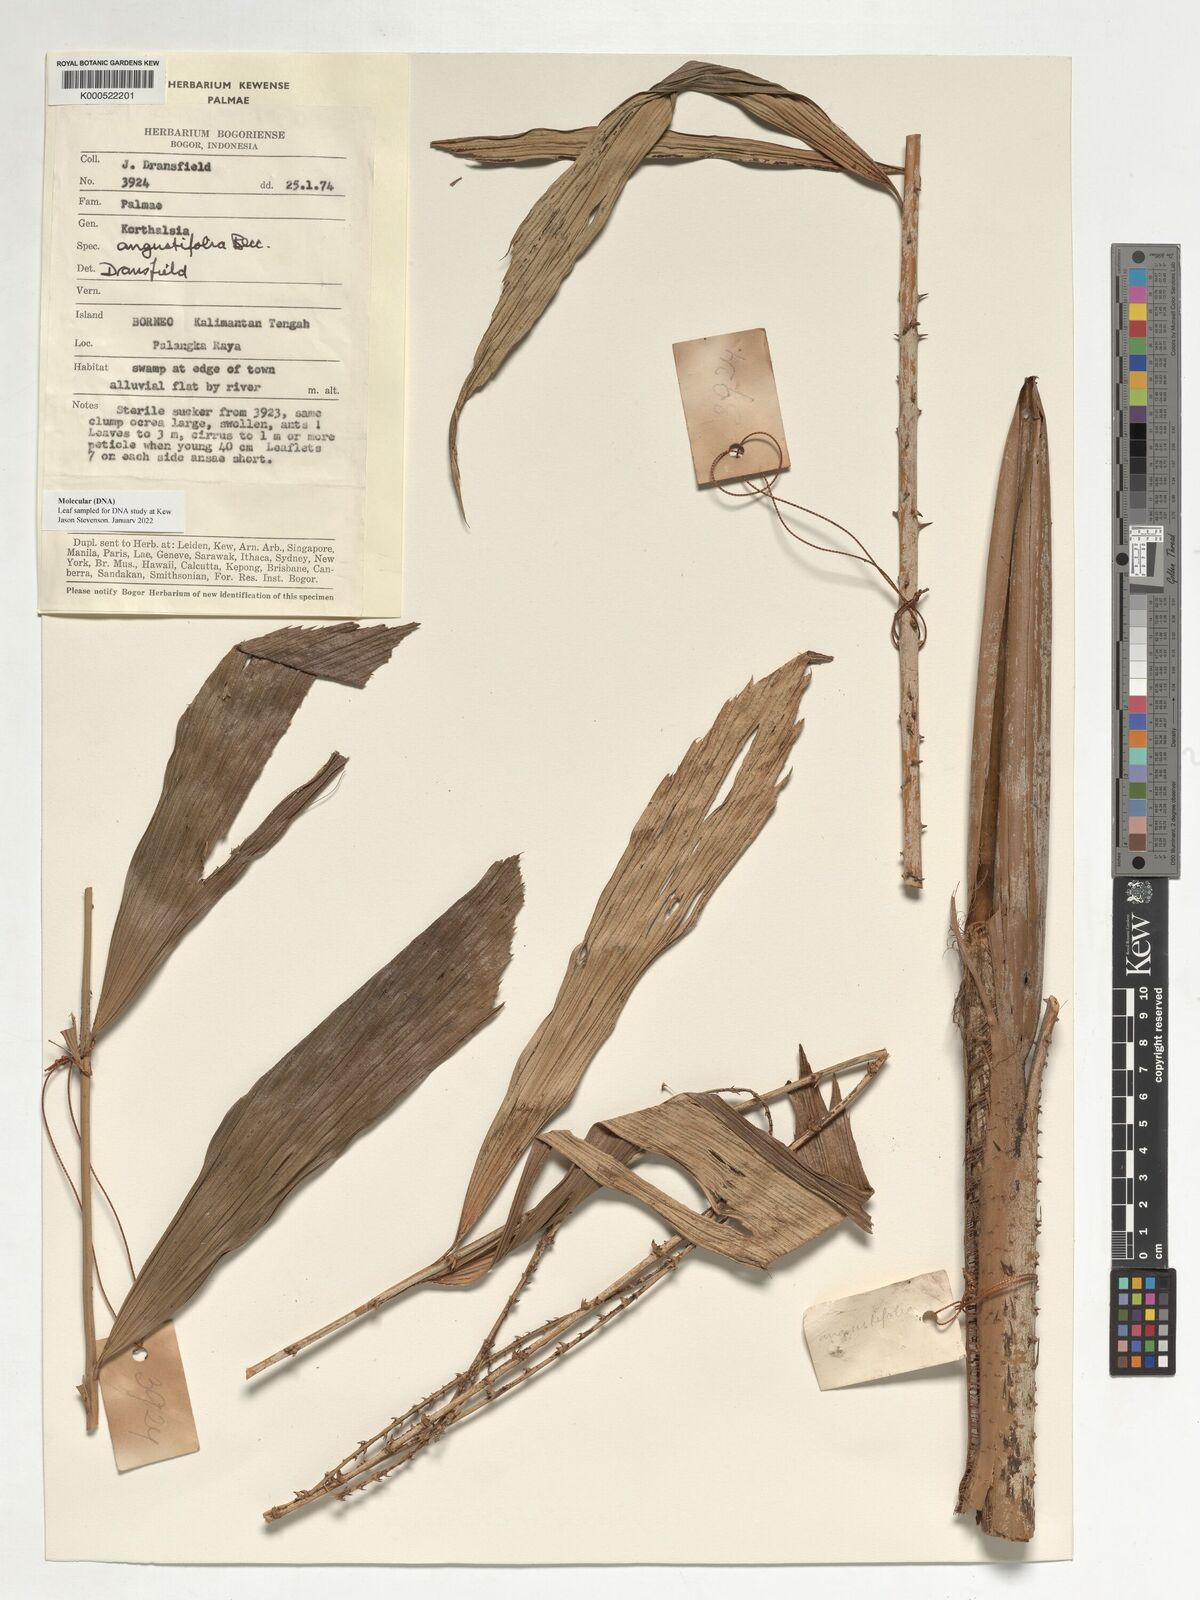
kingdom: Plantae
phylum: Tracheophyta
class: Liliopsida
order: Arecales
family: Arecaceae
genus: Korthalsia
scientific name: Korthalsia angustifolia
